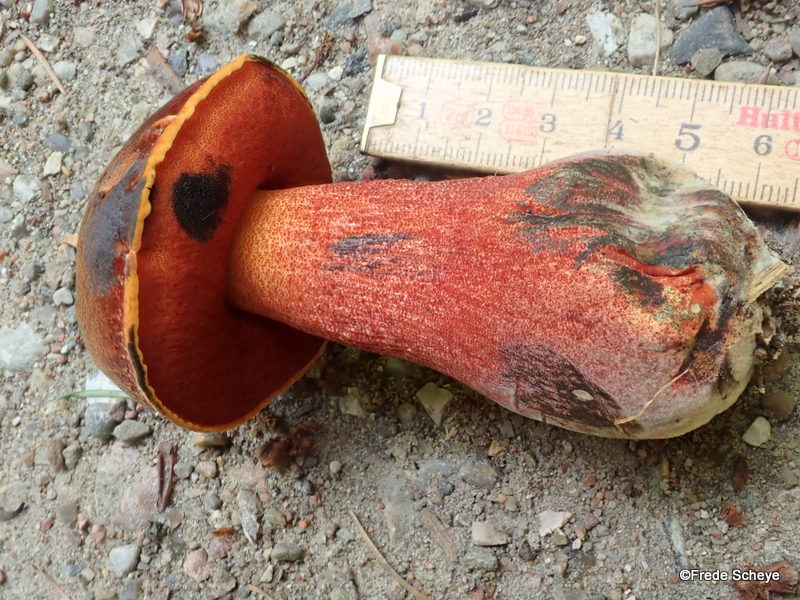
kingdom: Fungi
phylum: Basidiomycota
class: Agaricomycetes
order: Boletales
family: Boletaceae
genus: Neoboletus
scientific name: Neoboletus erythropus
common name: punktstokket indigorørhat
